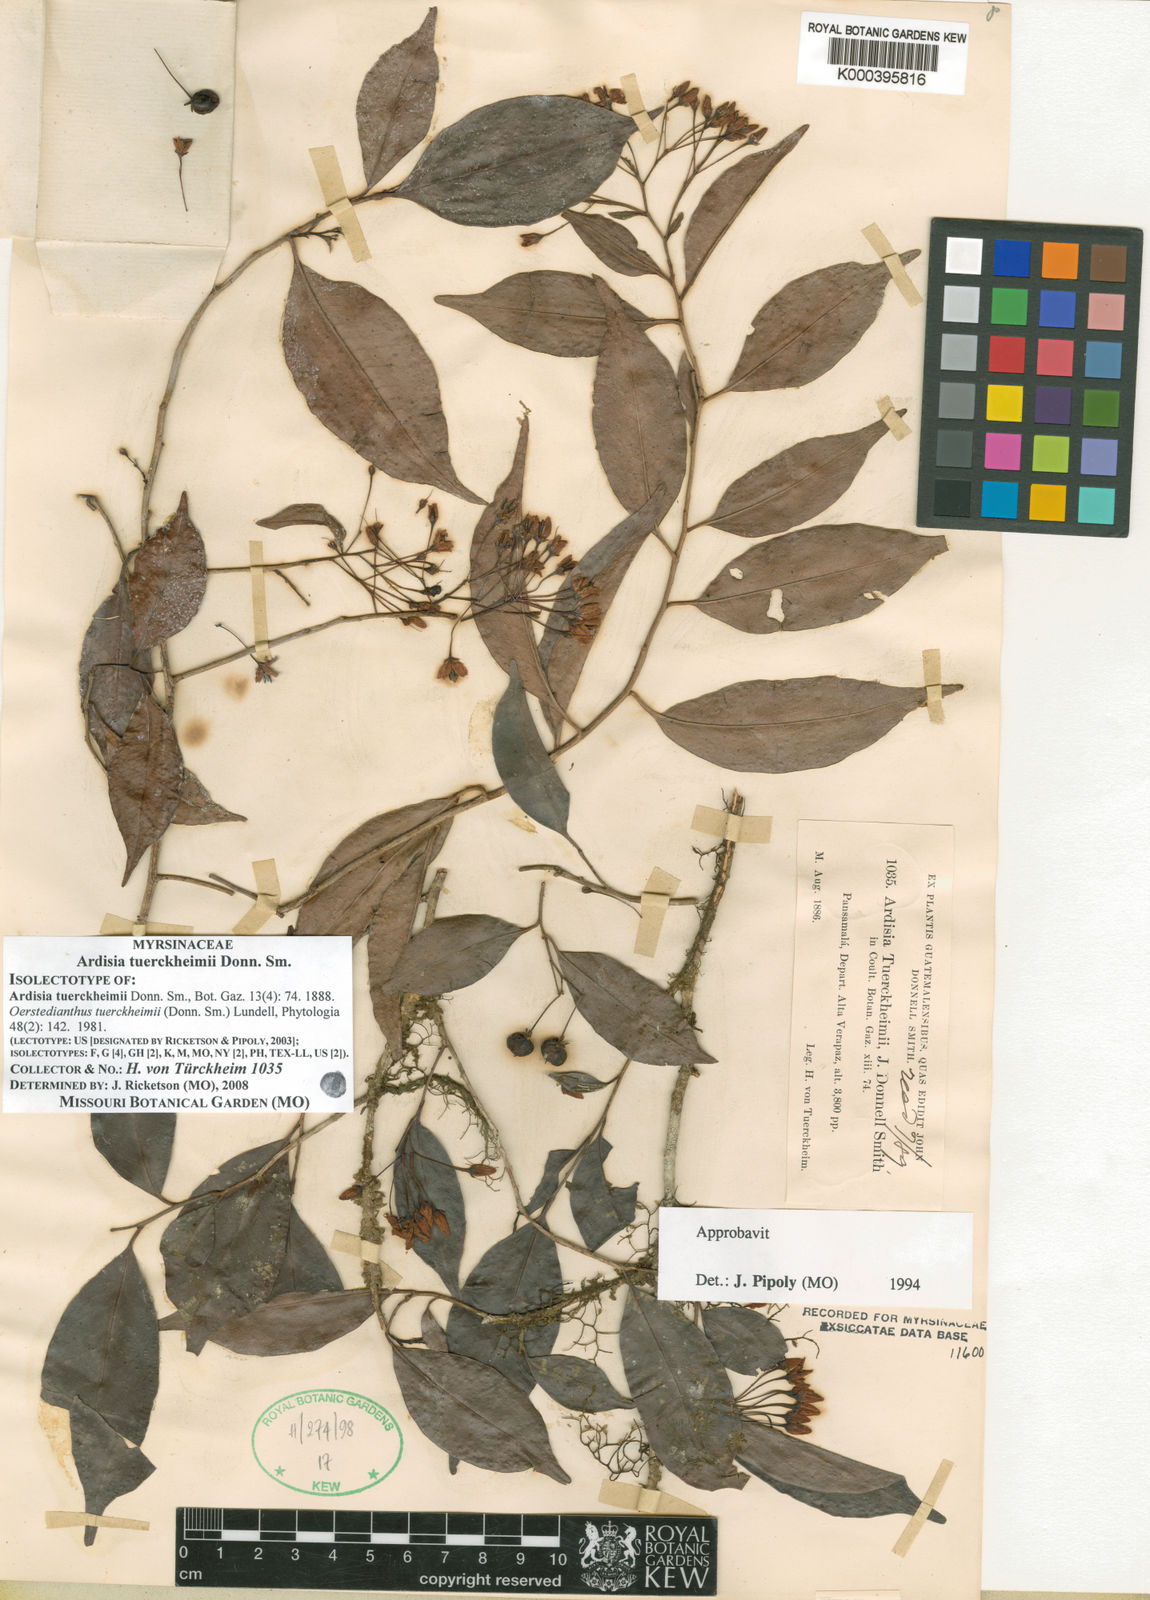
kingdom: Plantae
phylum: Tracheophyta
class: Magnoliopsida
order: Ericales
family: Primulaceae
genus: Ardisia
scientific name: Ardisia tuerckheimii
